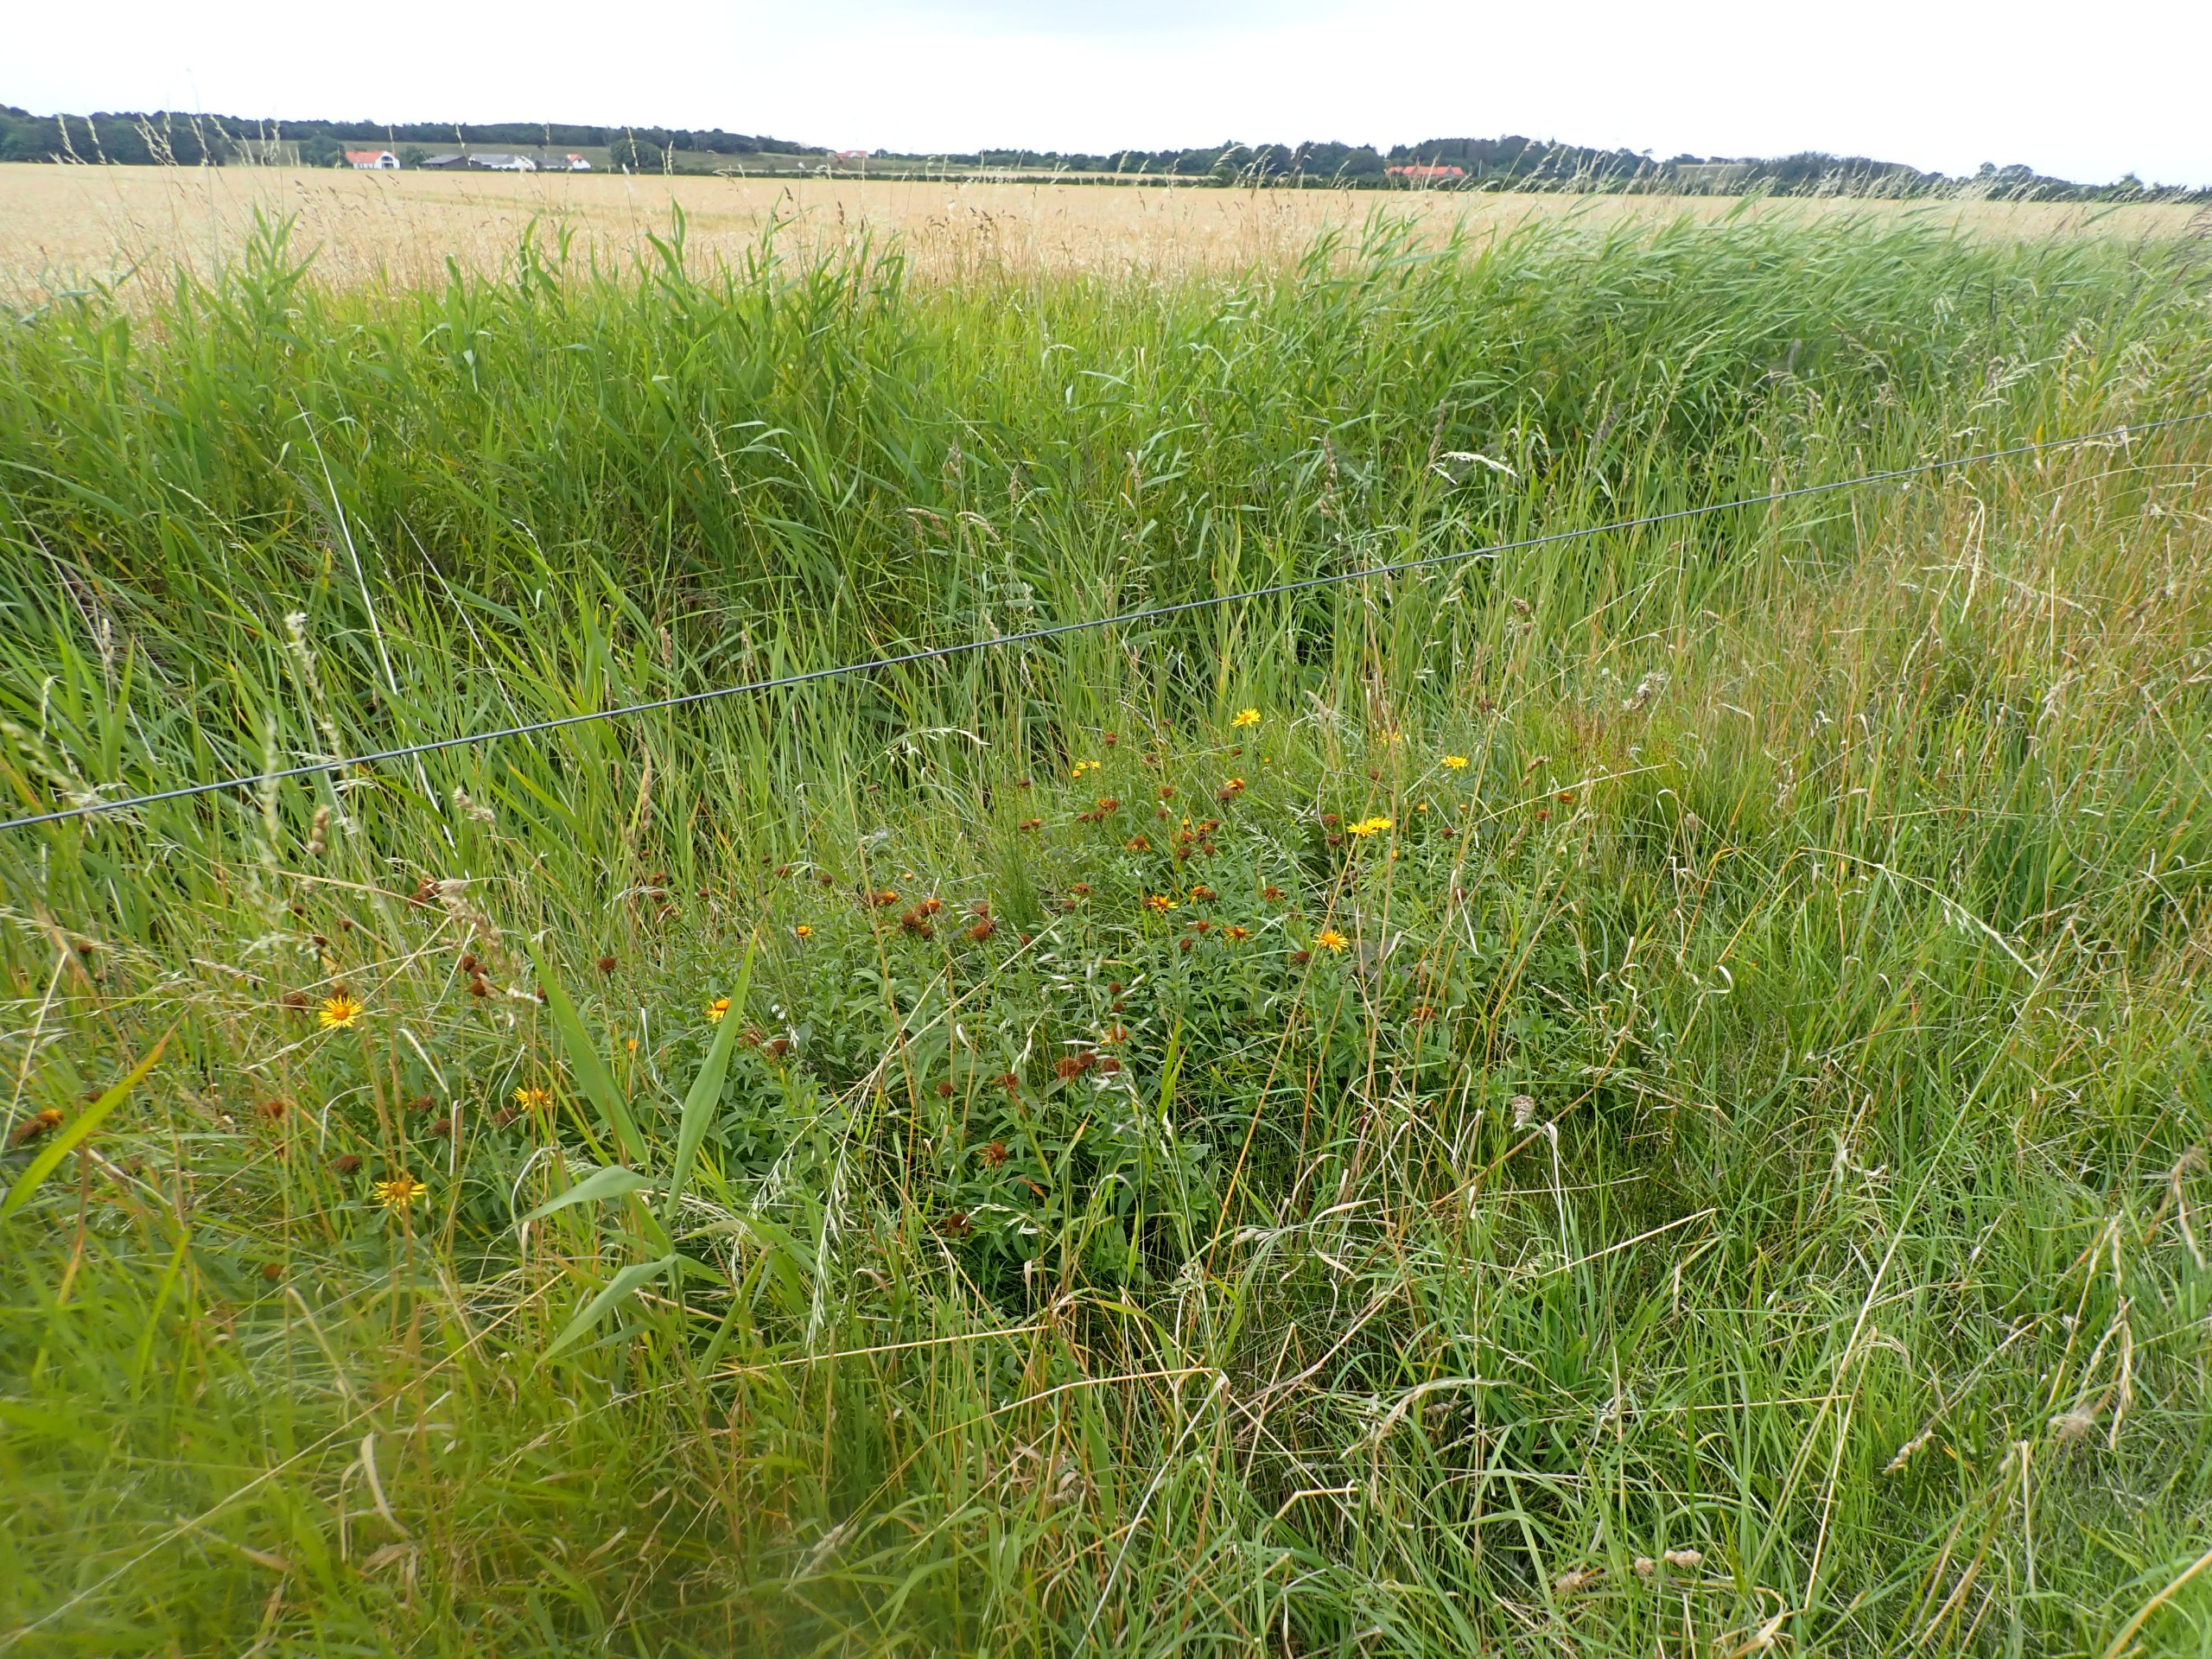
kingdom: Plantae
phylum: Tracheophyta
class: Magnoliopsida
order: Asterales
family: Asteraceae
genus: Pentanema
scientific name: Pentanema salicinum
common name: Pile-alant
